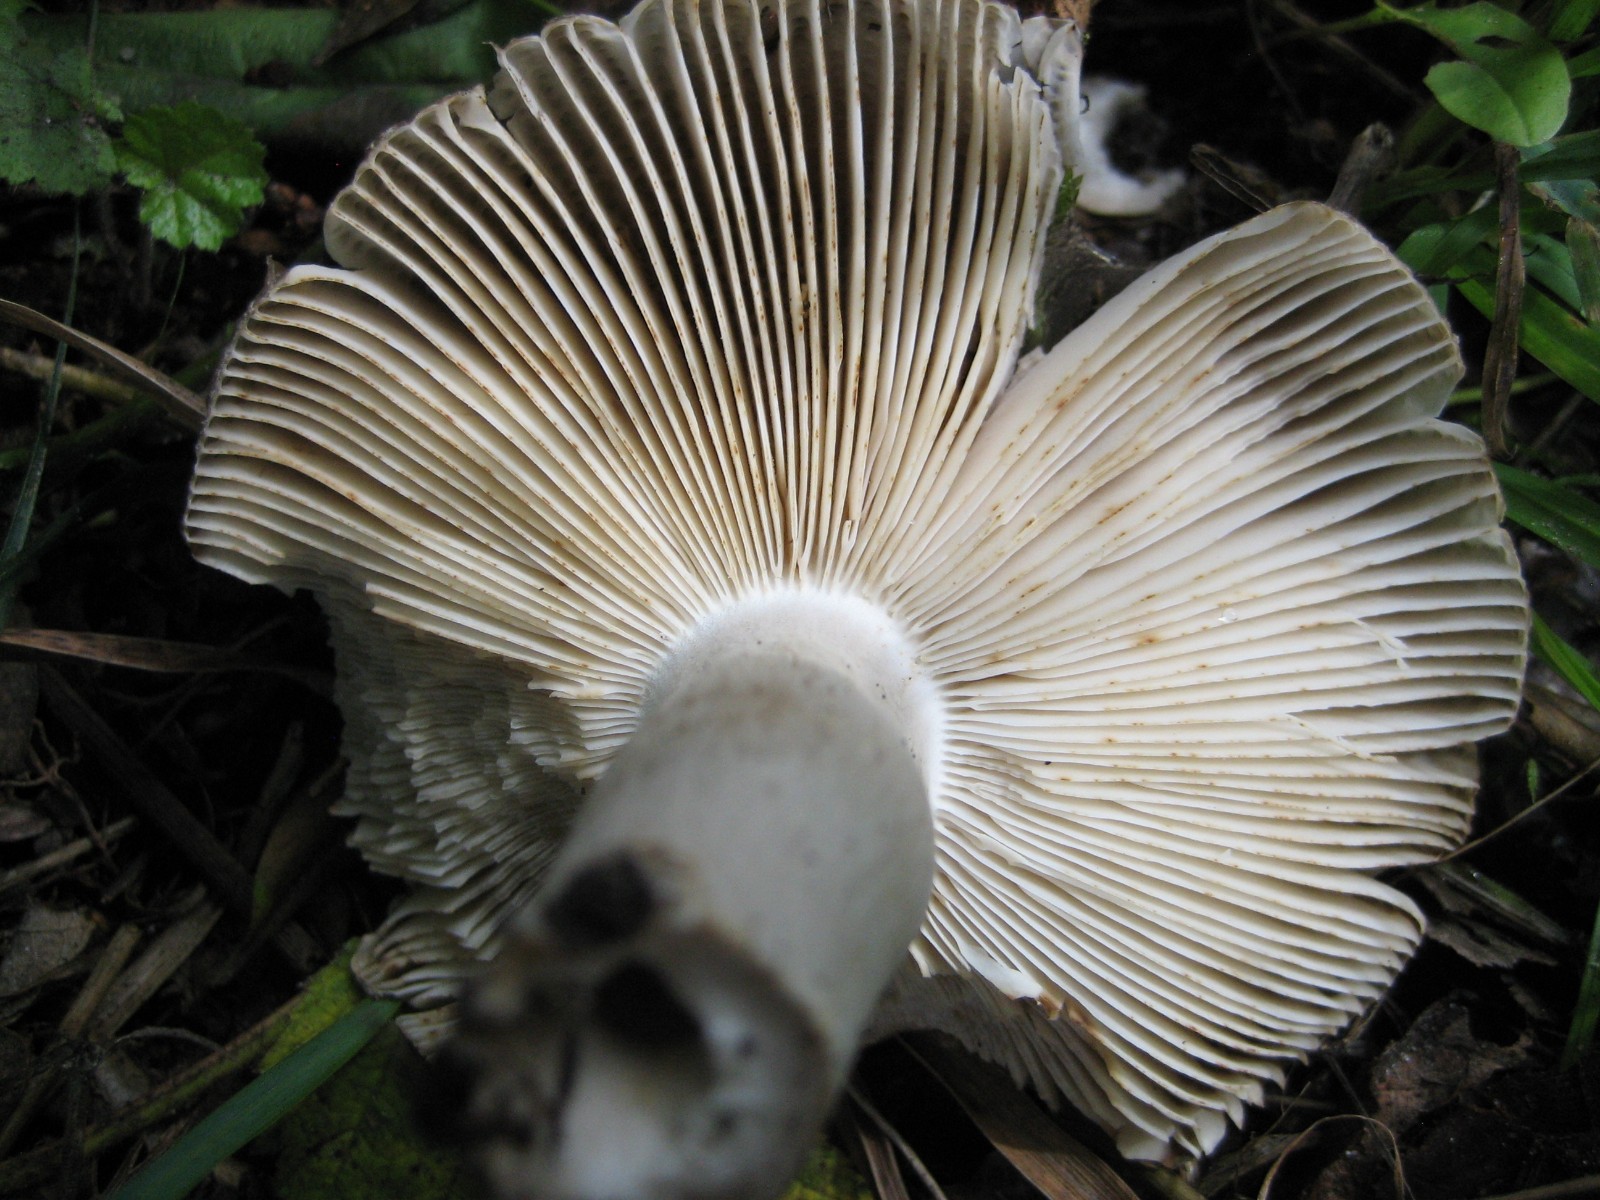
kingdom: Fungi
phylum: Basidiomycota
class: Agaricomycetes
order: Russulales
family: Russulaceae
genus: Russula
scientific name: Russula
